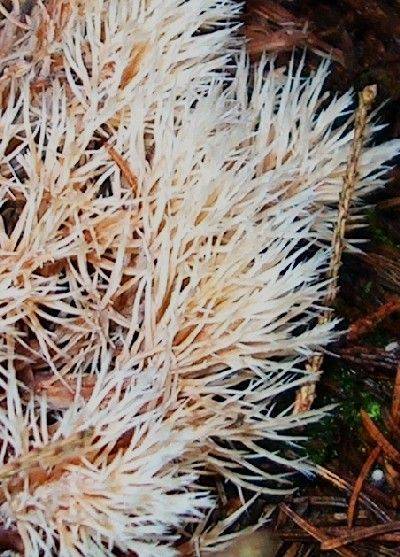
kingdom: Fungi
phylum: Basidiomycota
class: Agaricomycetes
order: Agaricales
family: Pterulaceae
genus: Pterula
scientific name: Pterula multifida
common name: busket fjerkølle
